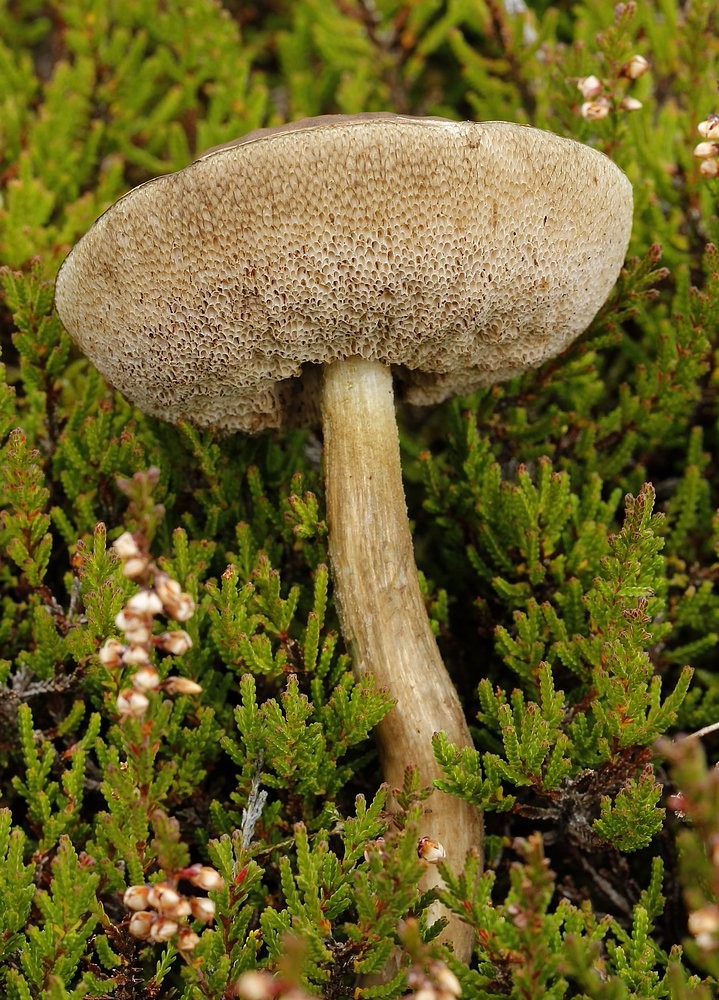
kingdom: Fungi
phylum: Basidiomycota
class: Agaricomycetes
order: Boletales
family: Boletaceae
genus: Leccinum
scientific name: Leccinum
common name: skælrørhat
